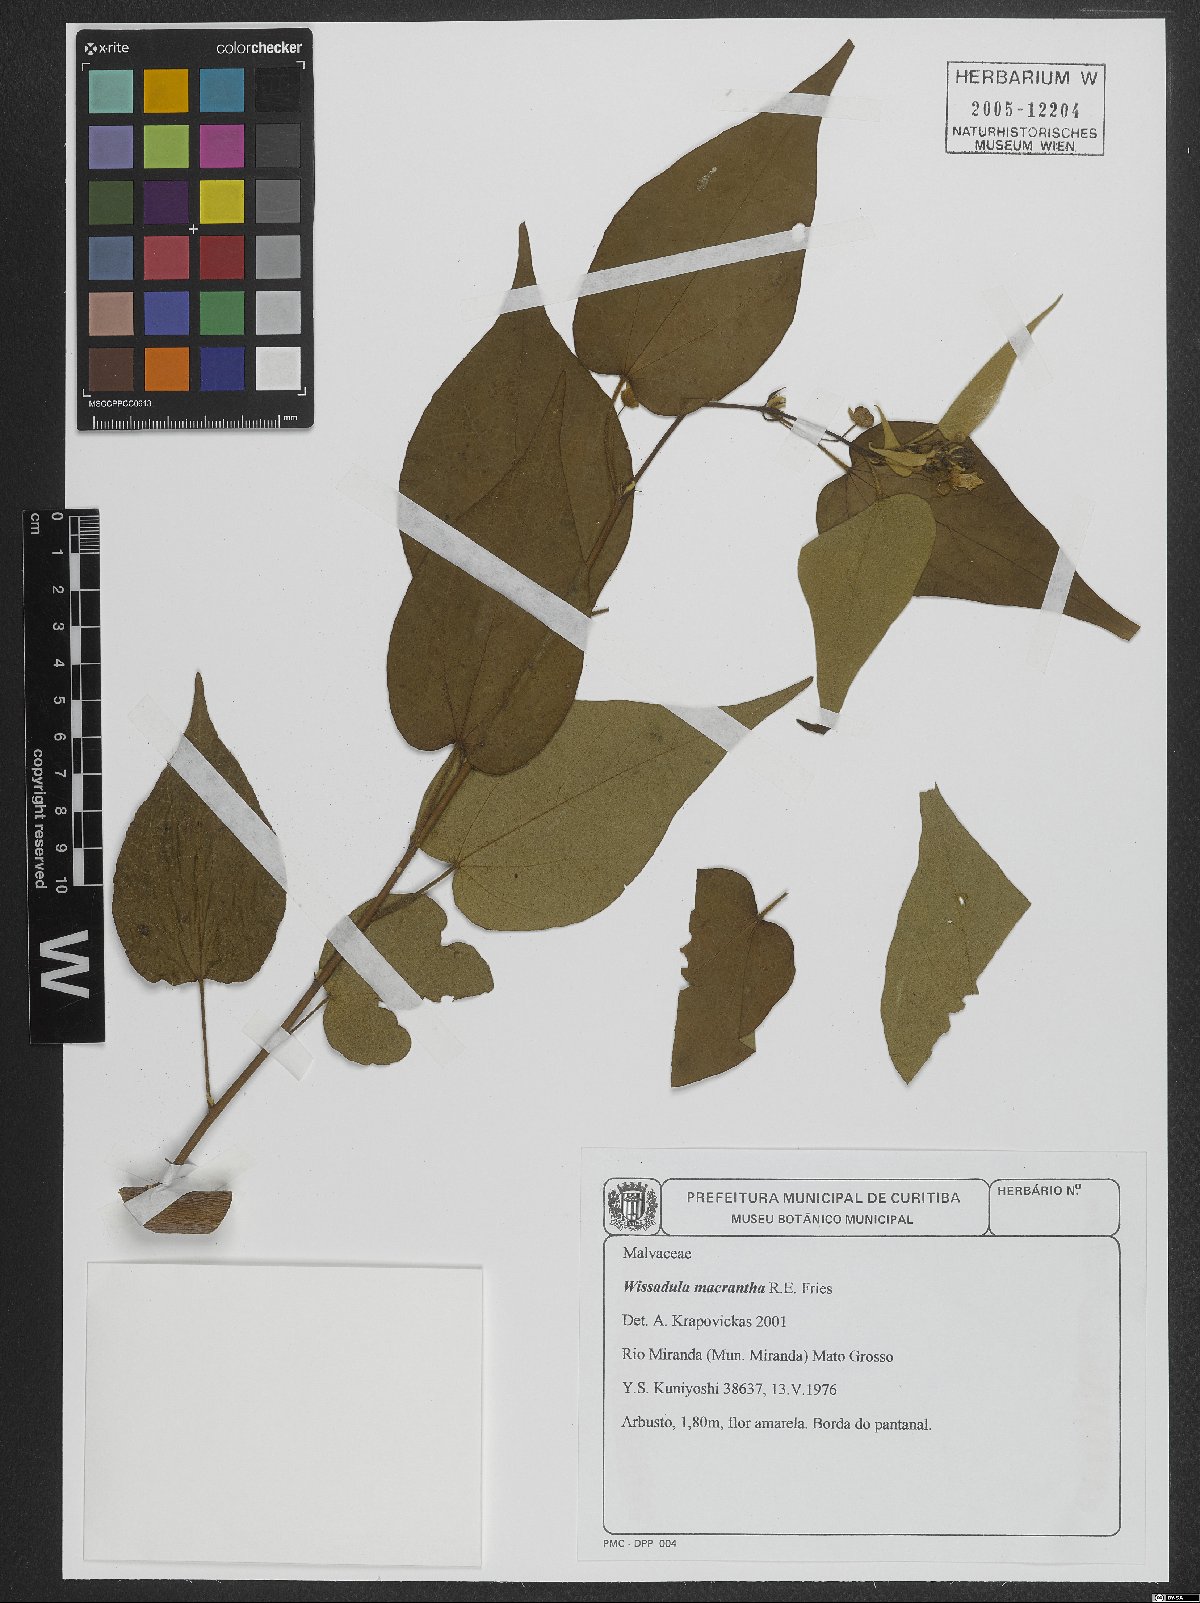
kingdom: Plantae
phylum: Tracheophyta
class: Magnoliopsida
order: Malvales
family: Malvaceae
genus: Wissadula
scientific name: Wissadula grandifolia
